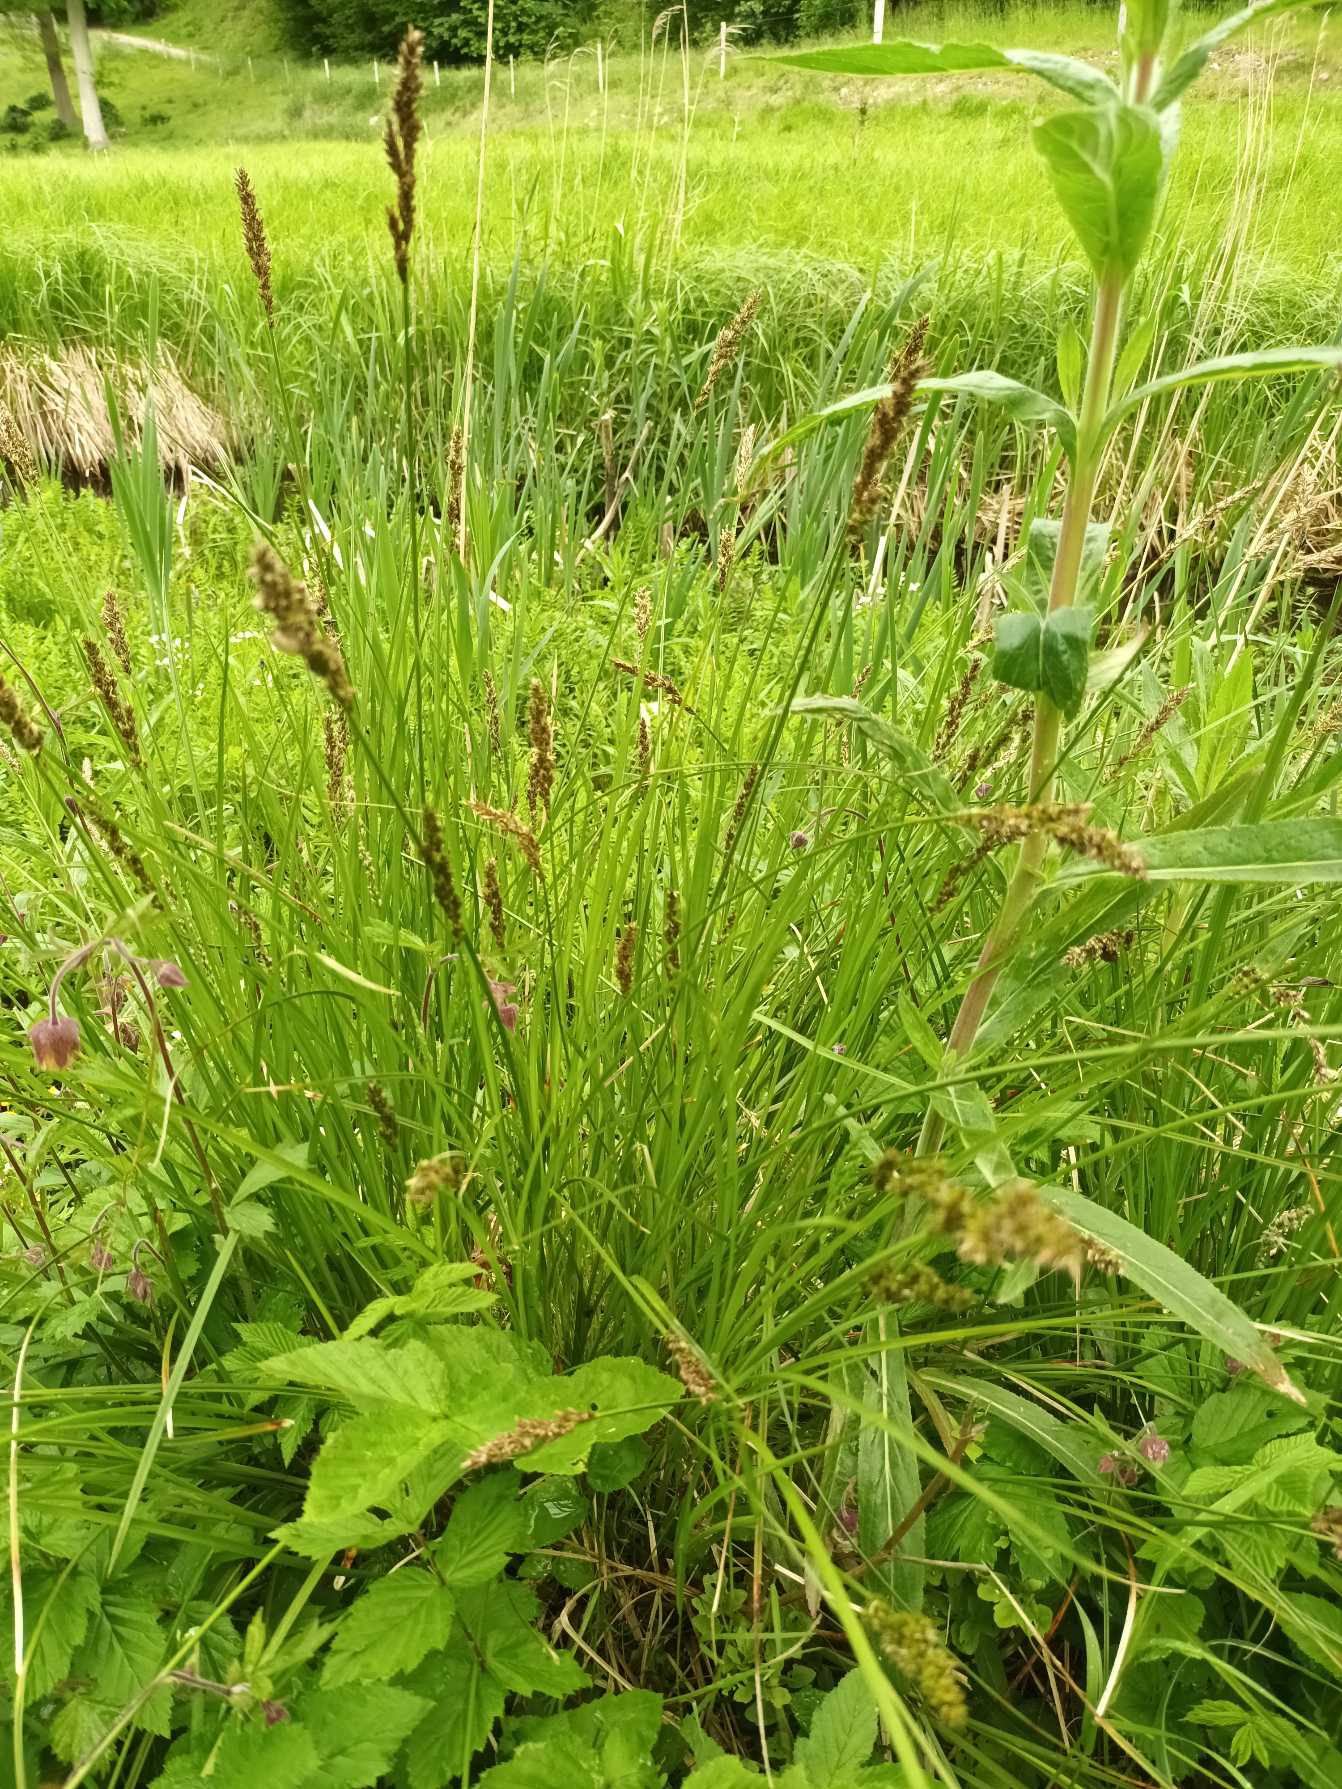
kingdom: Plantae
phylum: Tracheophyta
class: Liliopsida
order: Poales
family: Cyperaceae
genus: Carex
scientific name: Carex paniculata
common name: Top-star
